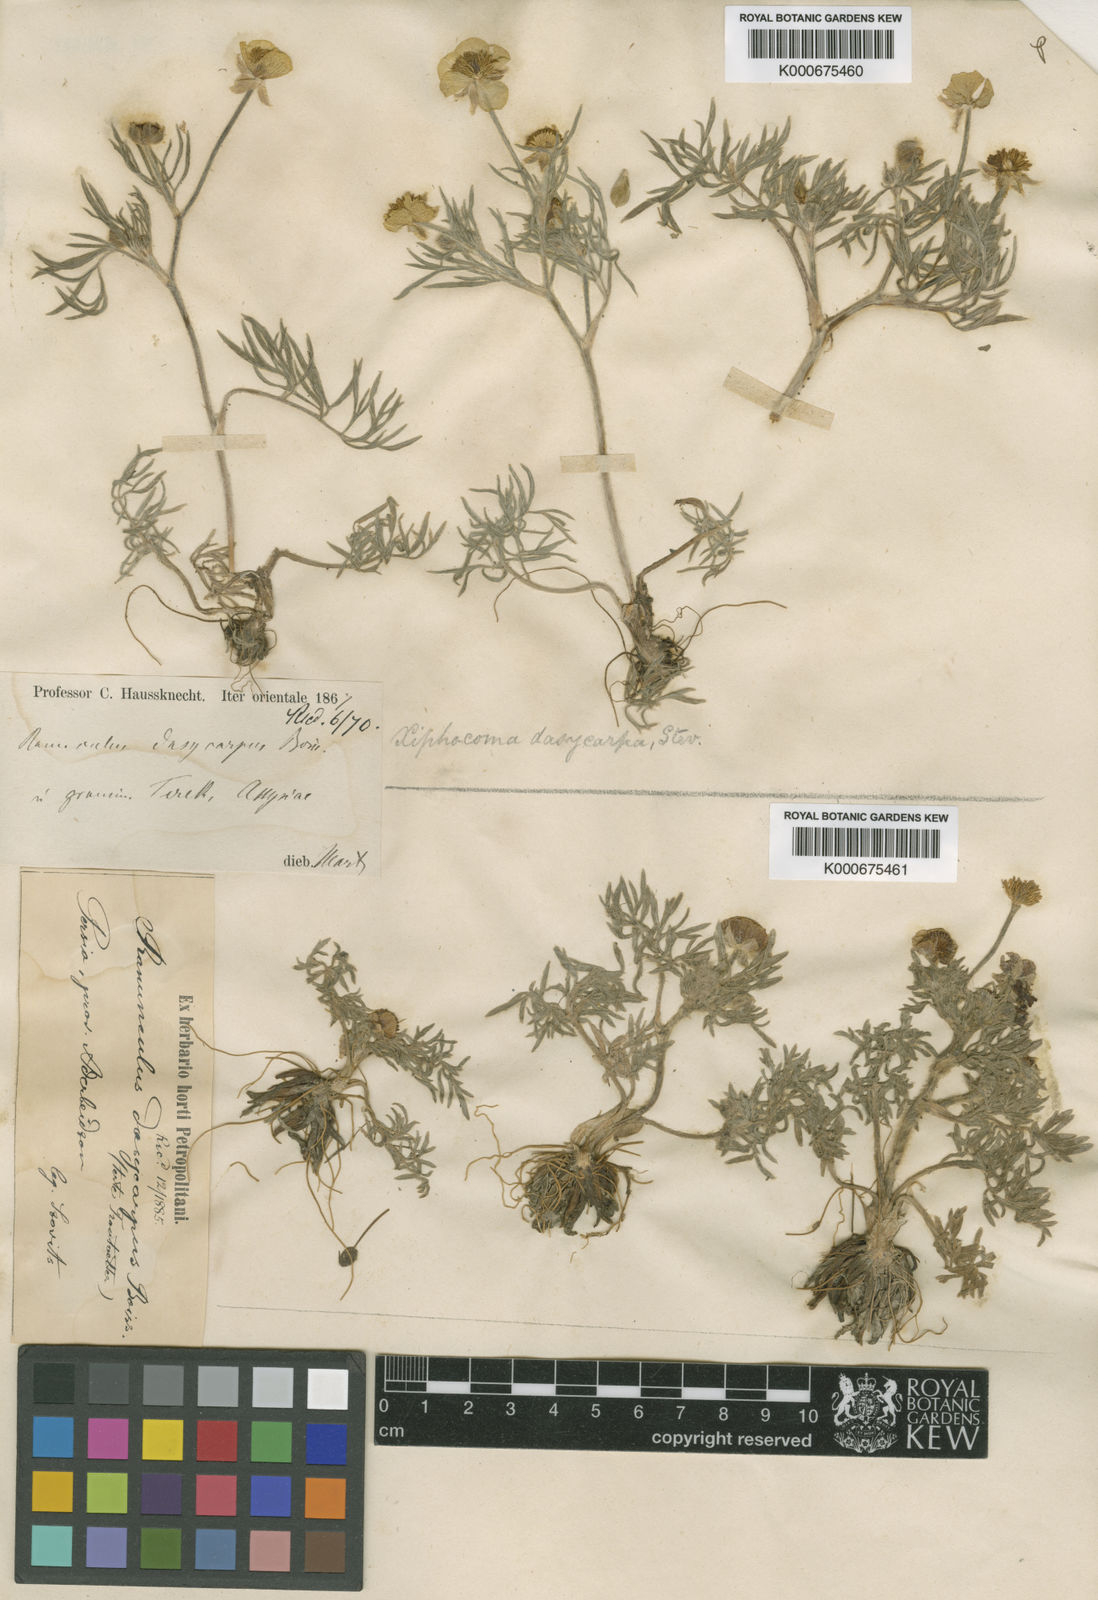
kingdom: Plantae
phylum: Tracheophyta
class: Magnoliopsida
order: Ranunculales
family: Ranunculaceae
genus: Ranunculus
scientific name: Ranunculus macrorrhynchus
